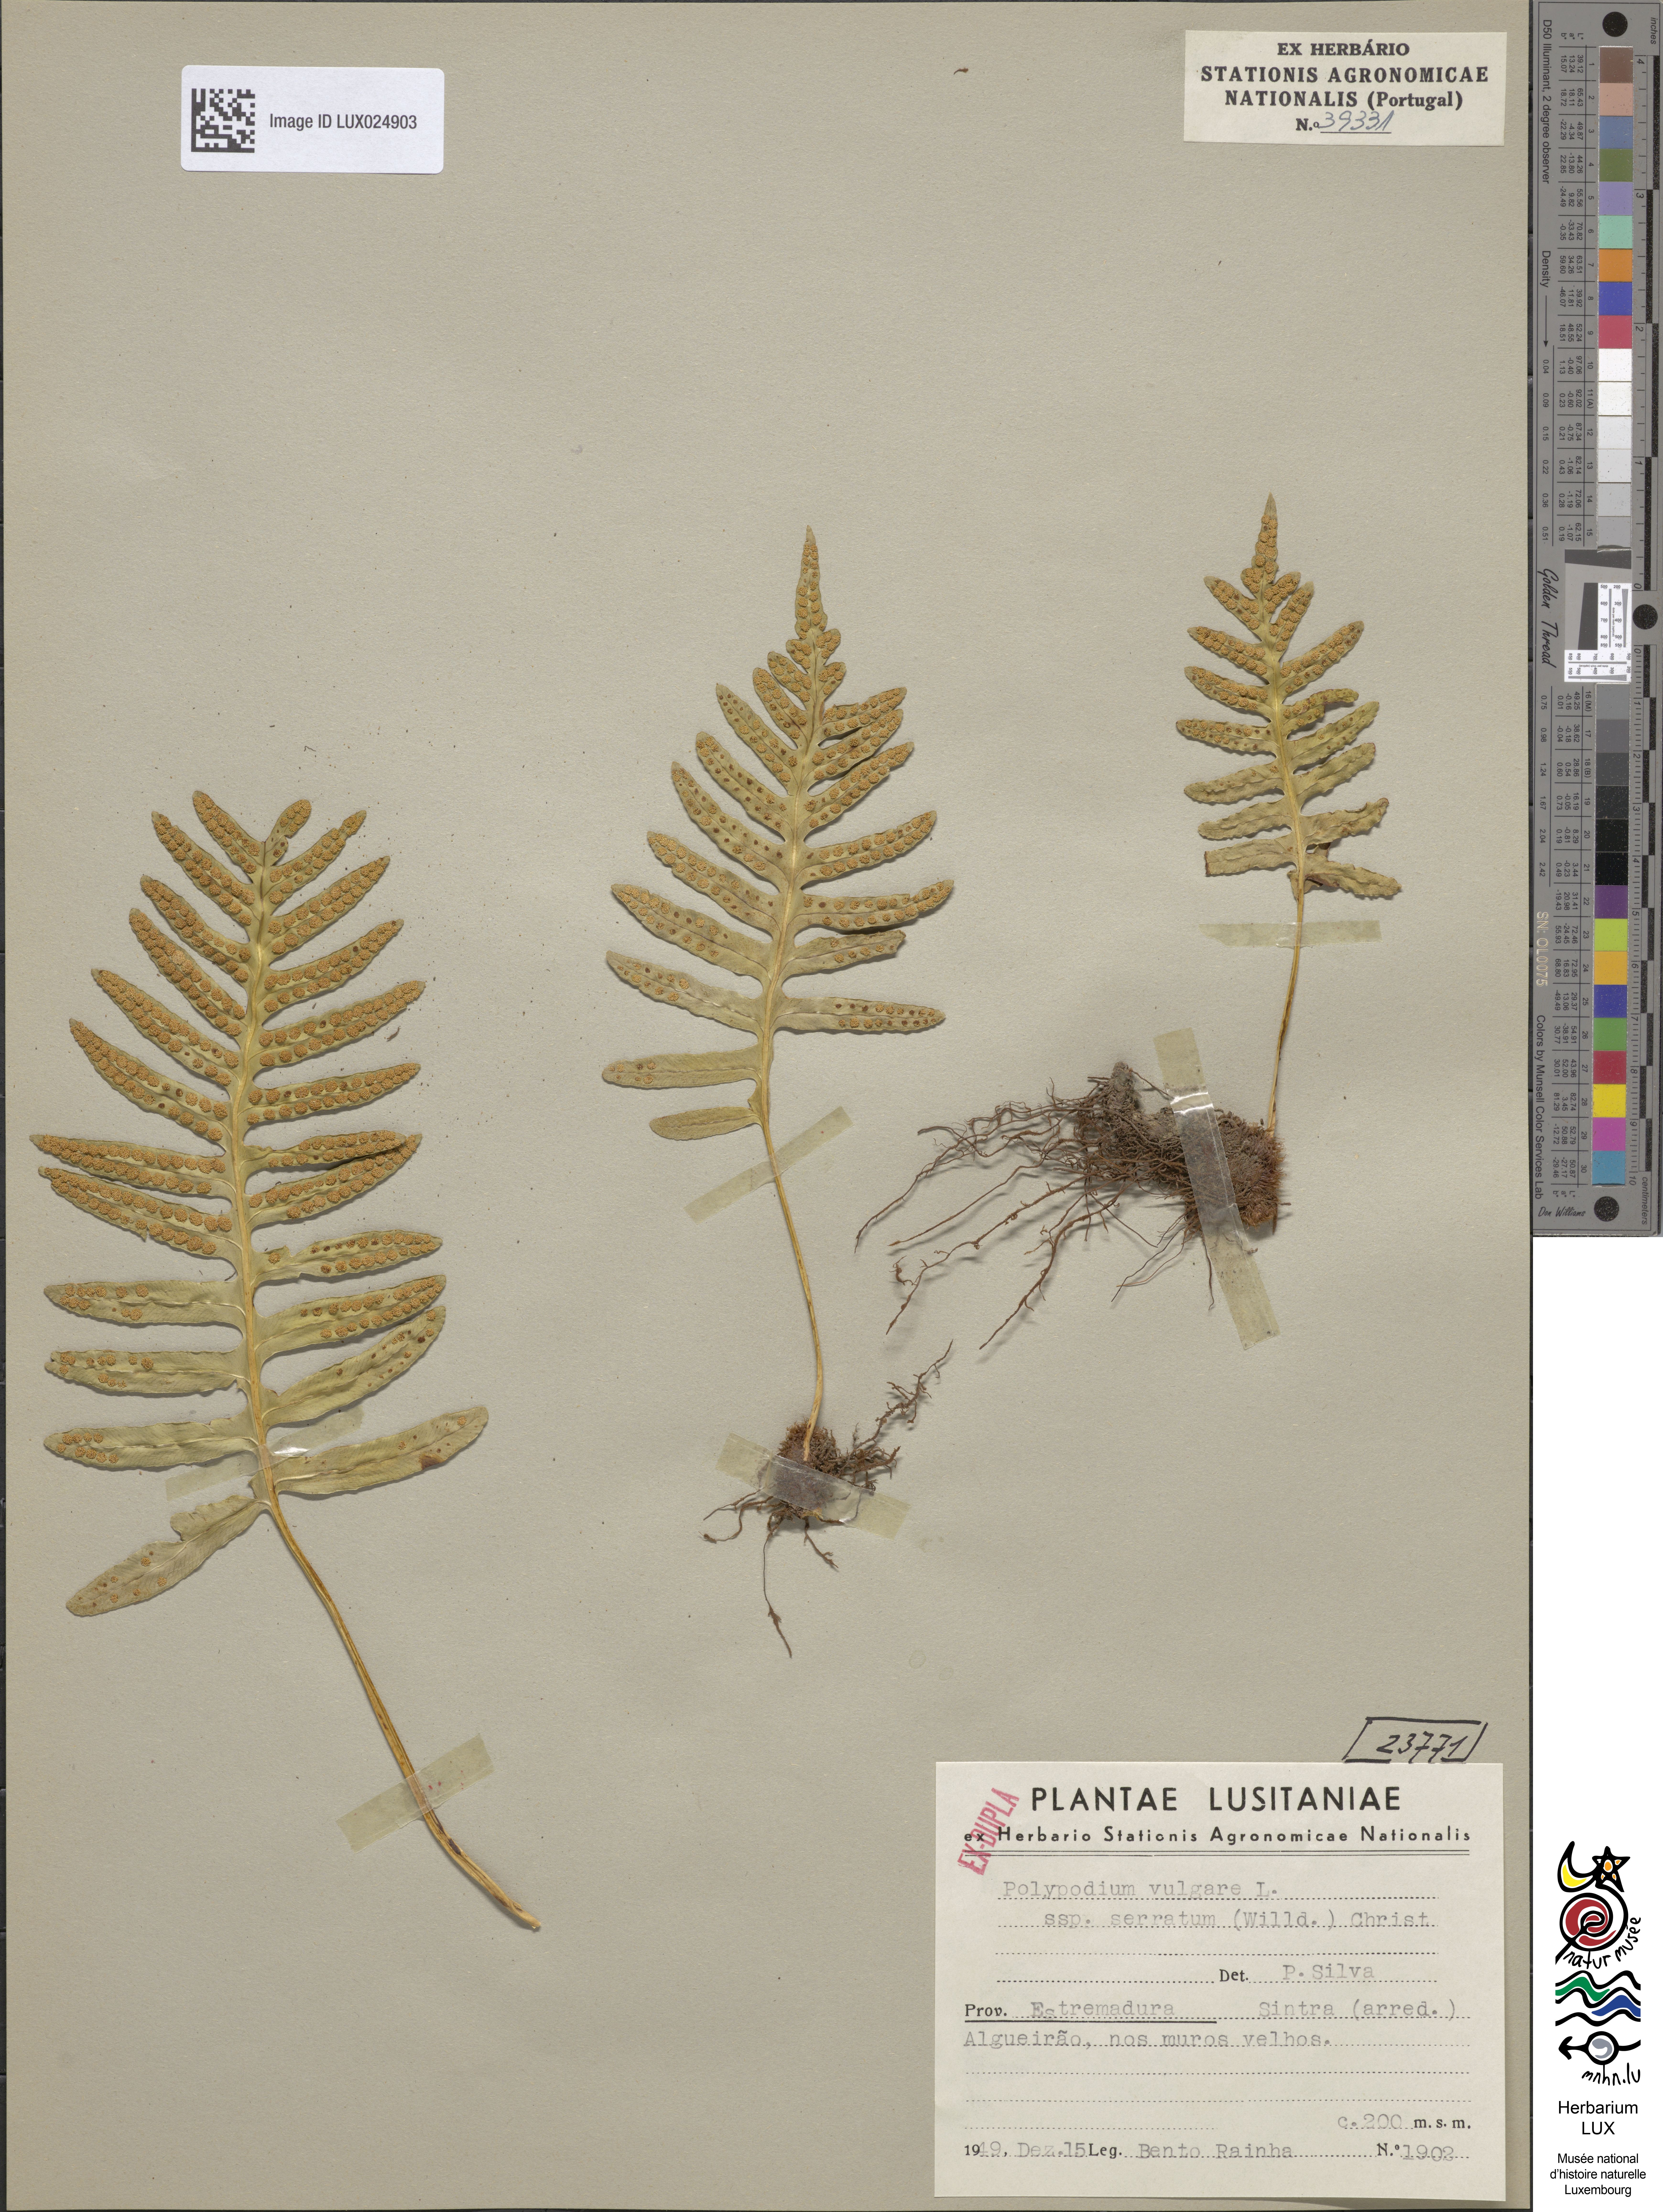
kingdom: Plantae
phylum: Tracheophyta
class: Polypodiopsida
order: Polypodiales
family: Polypodiaceae
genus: Polypodium
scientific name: Polypodium cambricum
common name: Southern polypody
